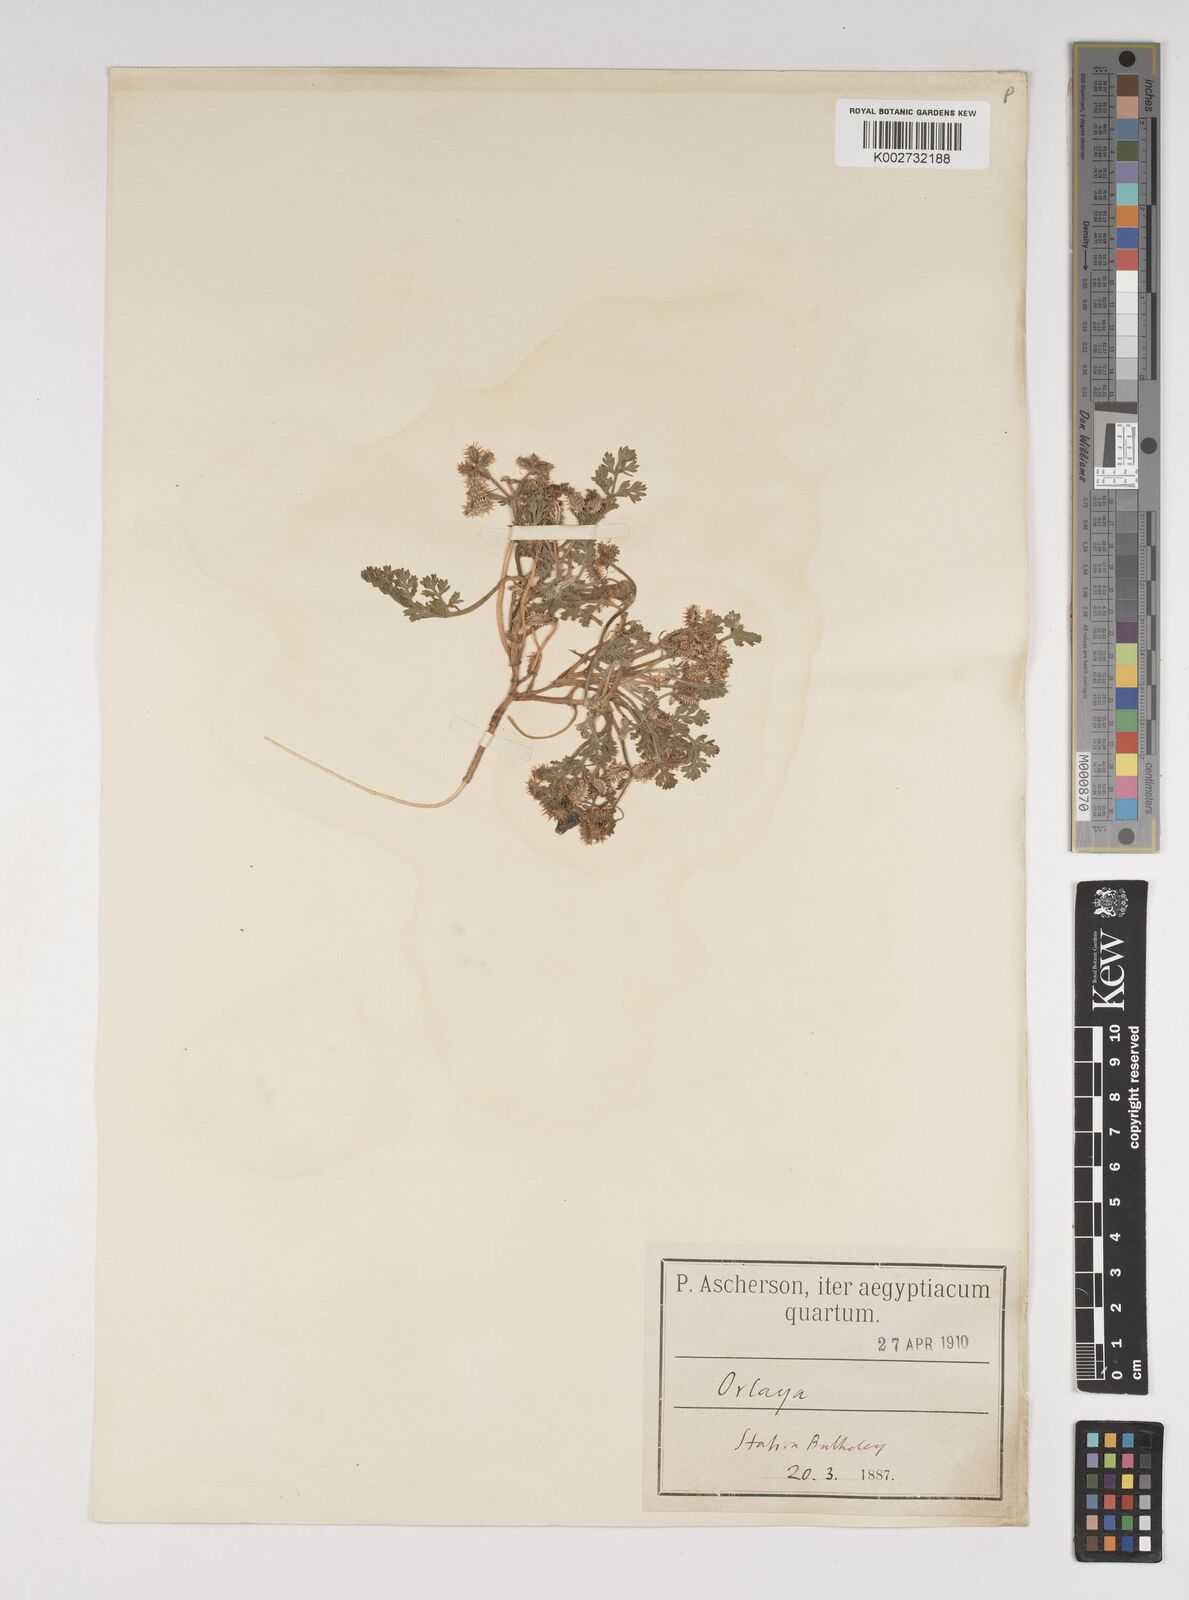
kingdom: Plantae
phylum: Tracheophyta
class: Magnoliopsida
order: Apiales
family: Apiaceae
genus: Daucus
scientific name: Daucus pumilus
